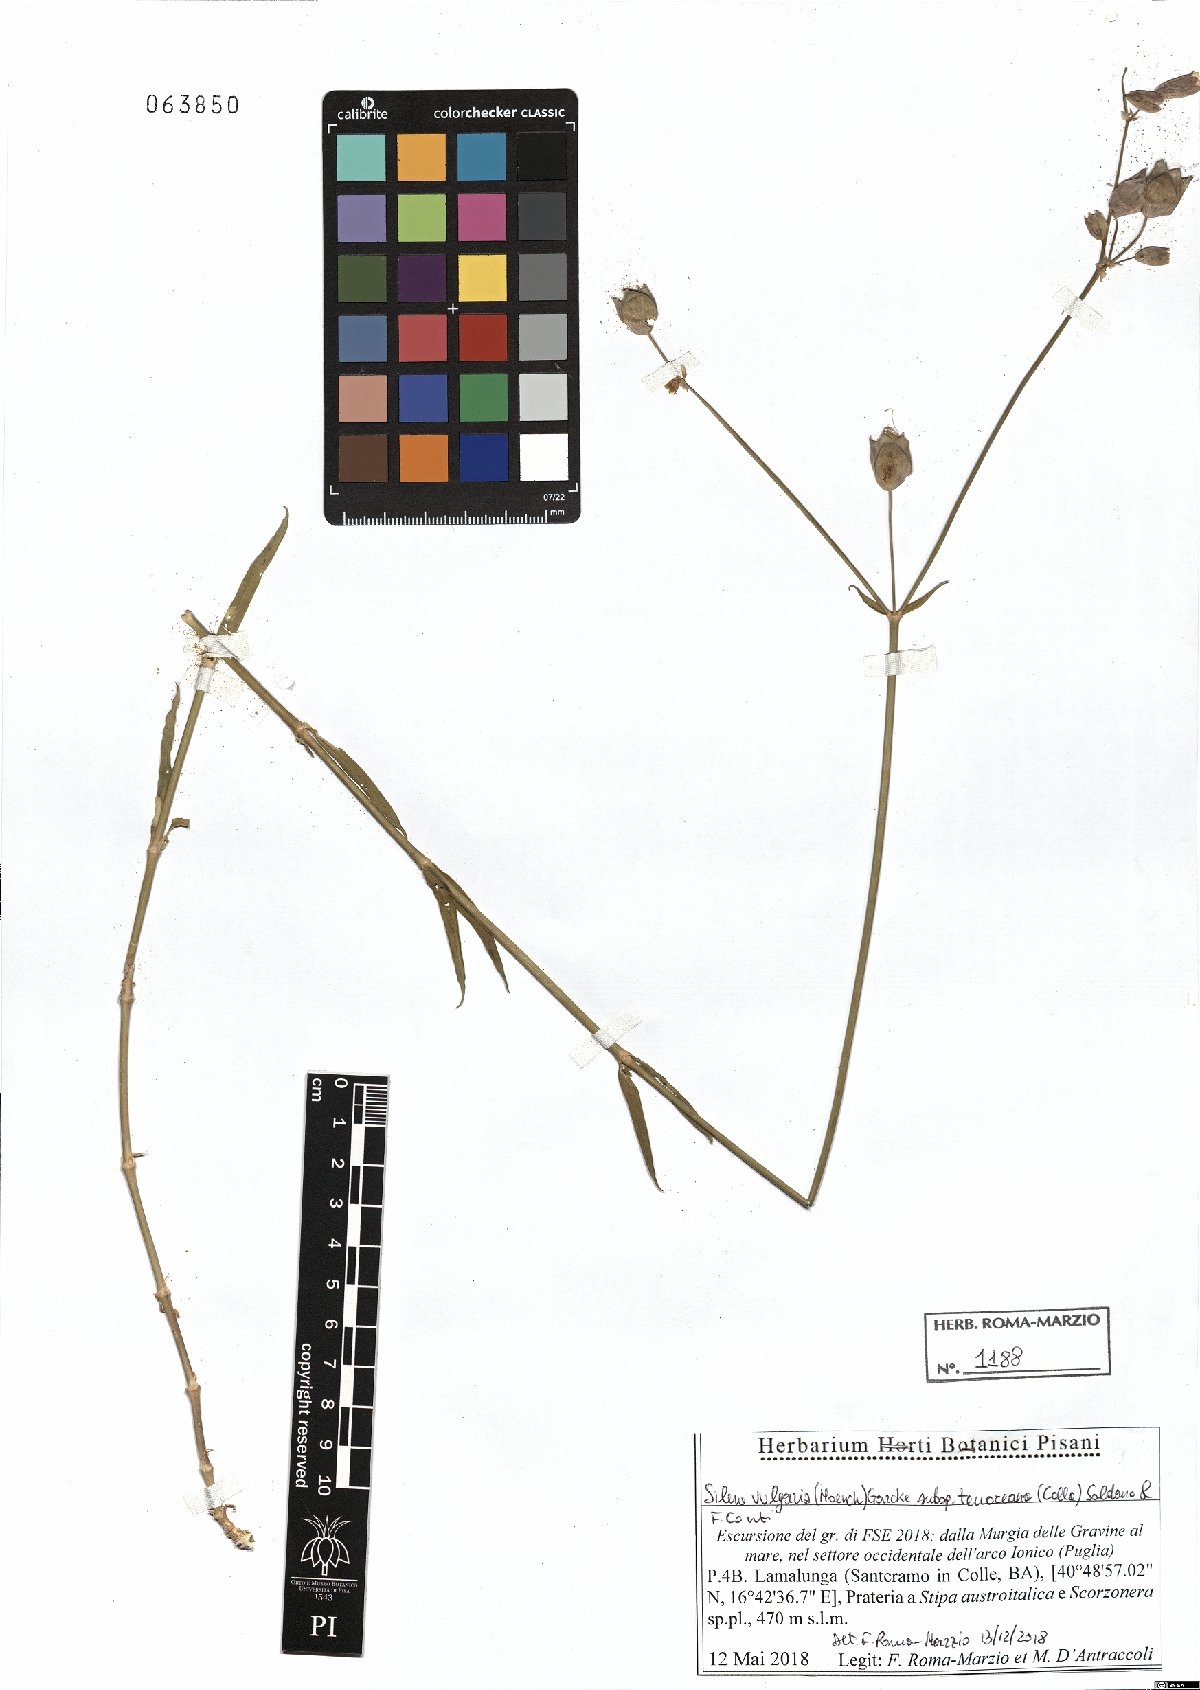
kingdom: Plantae
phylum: Tracheophyta
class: Magnoliopsida
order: Caryophyllales
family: Caryophyllaceae
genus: Silene
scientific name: Silene vulgaris
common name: Bladder campion
